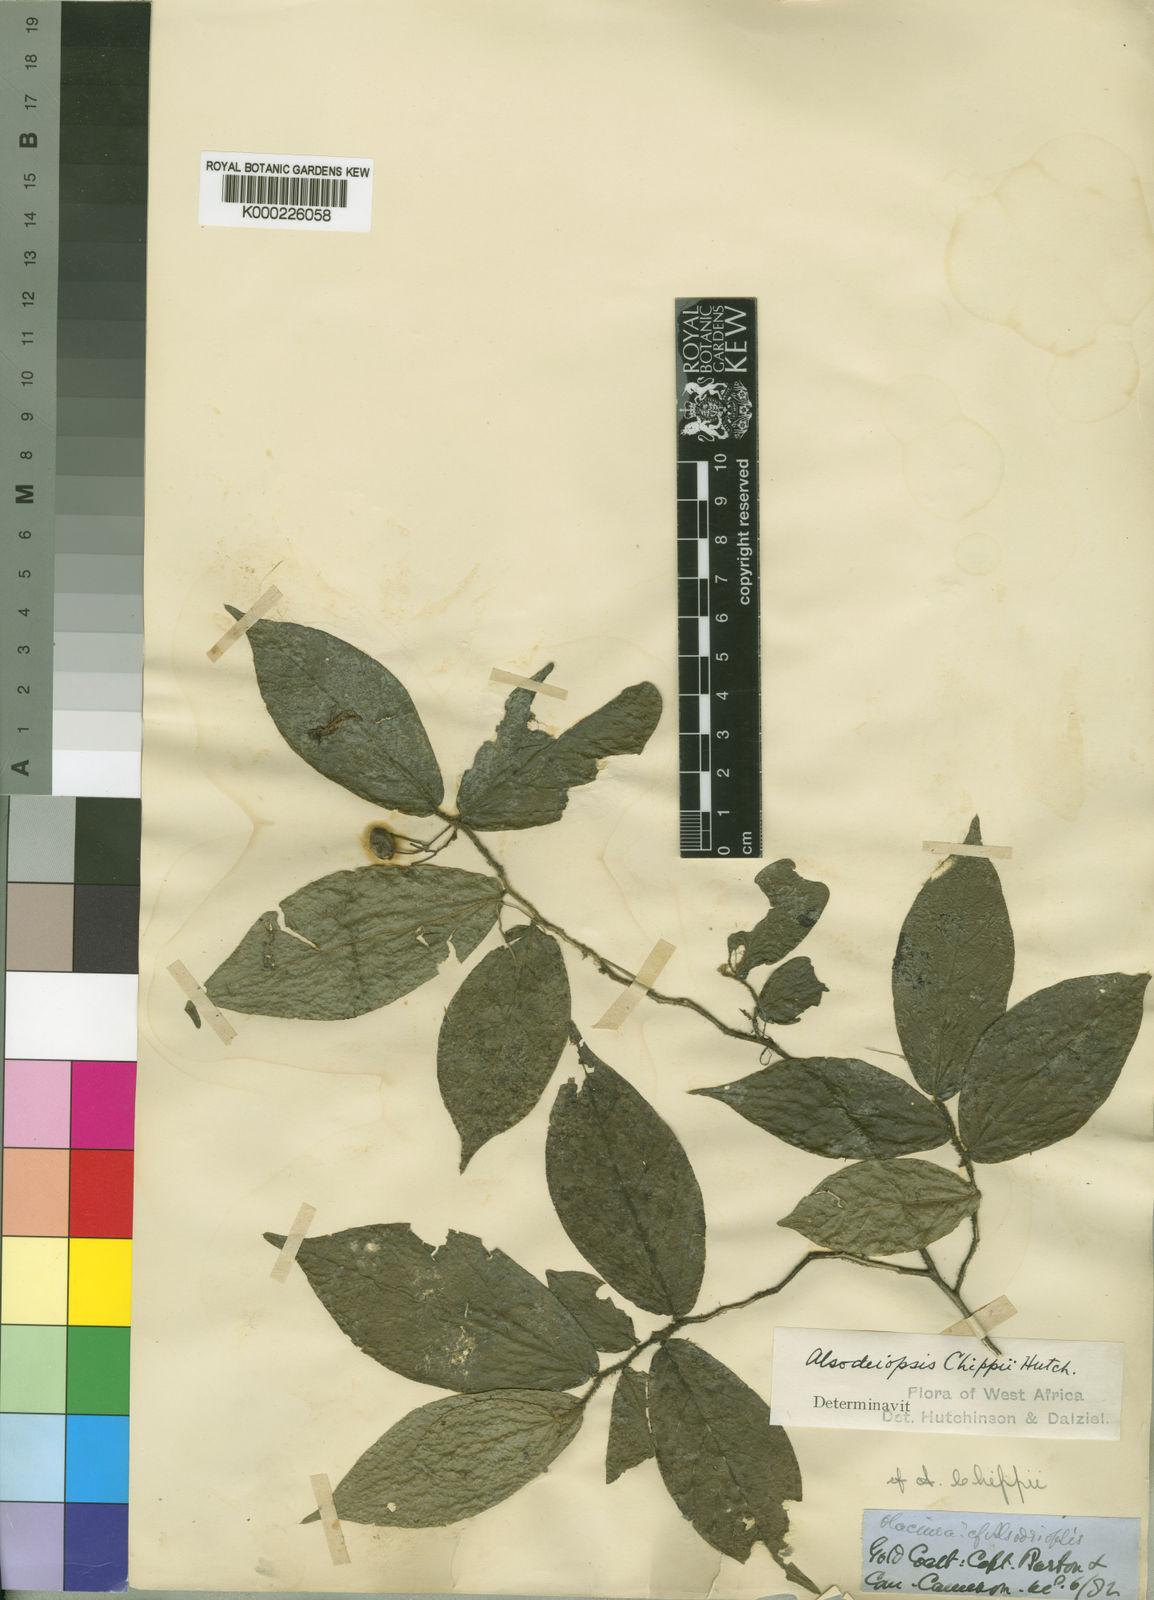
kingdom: Plantae
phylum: Tracheophyta
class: Magnoliopsida
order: Icacinales
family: Icacinaceae
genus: Icacina
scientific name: Icacina
